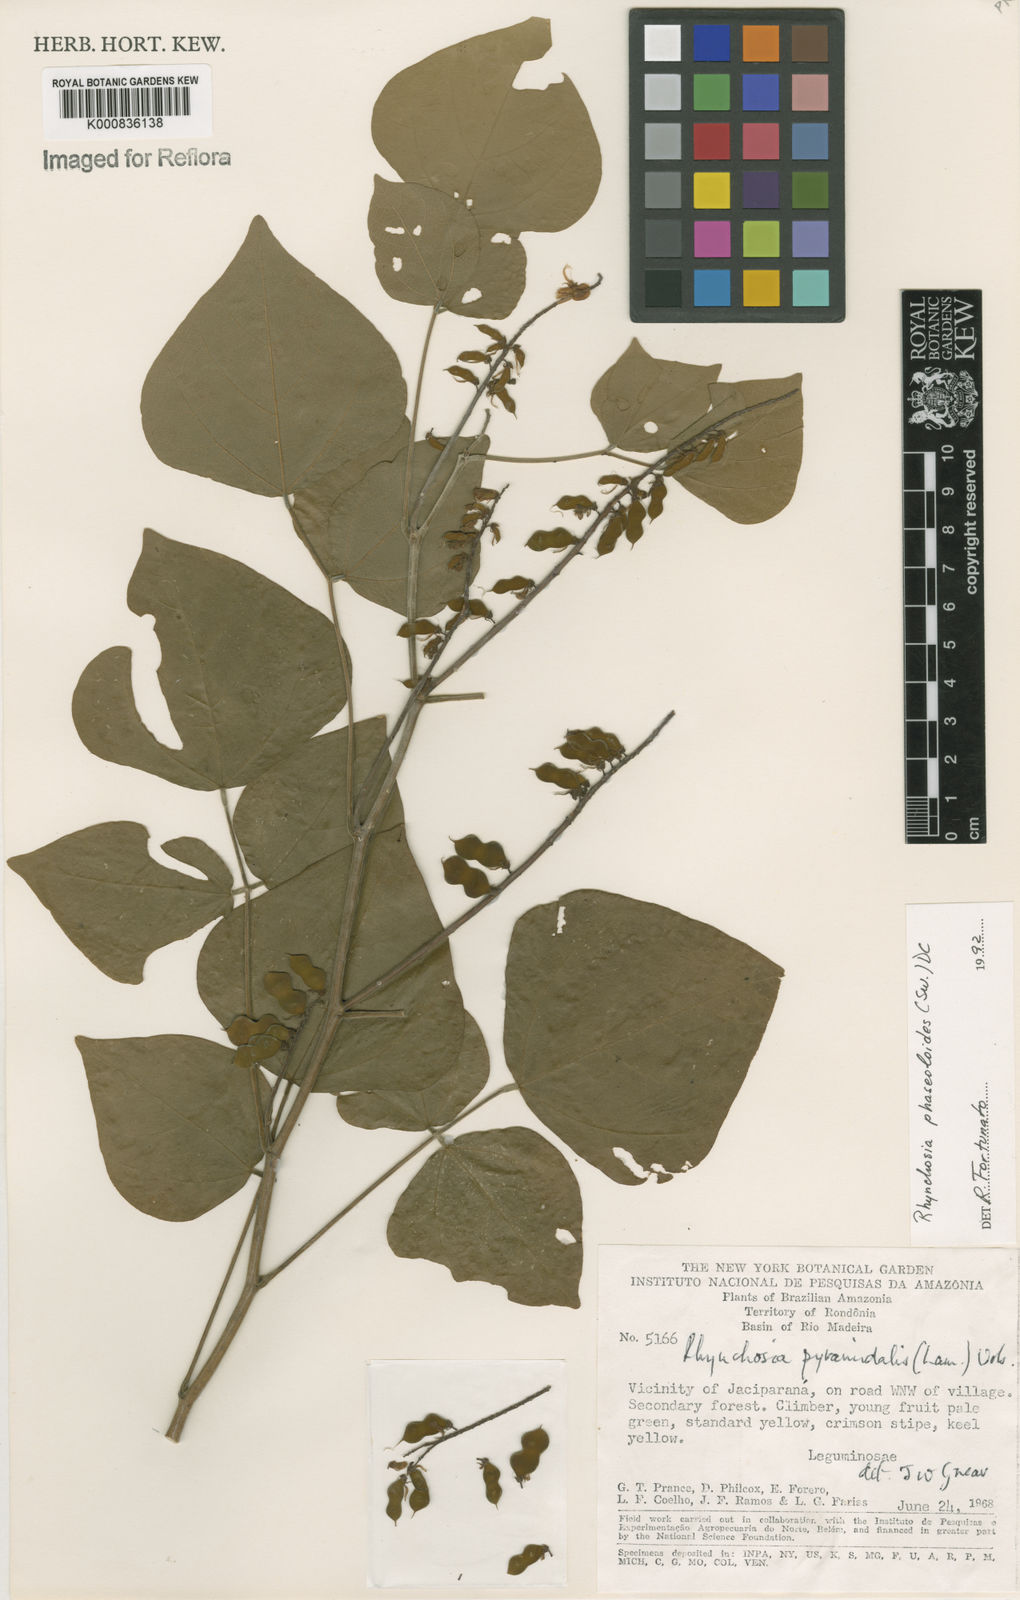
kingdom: Plantae
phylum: Tracheophyta
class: Magnoliopsida
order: Fabales
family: Fabaceae
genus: Rhynchosia
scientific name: Rhynchosia phaseoloides
